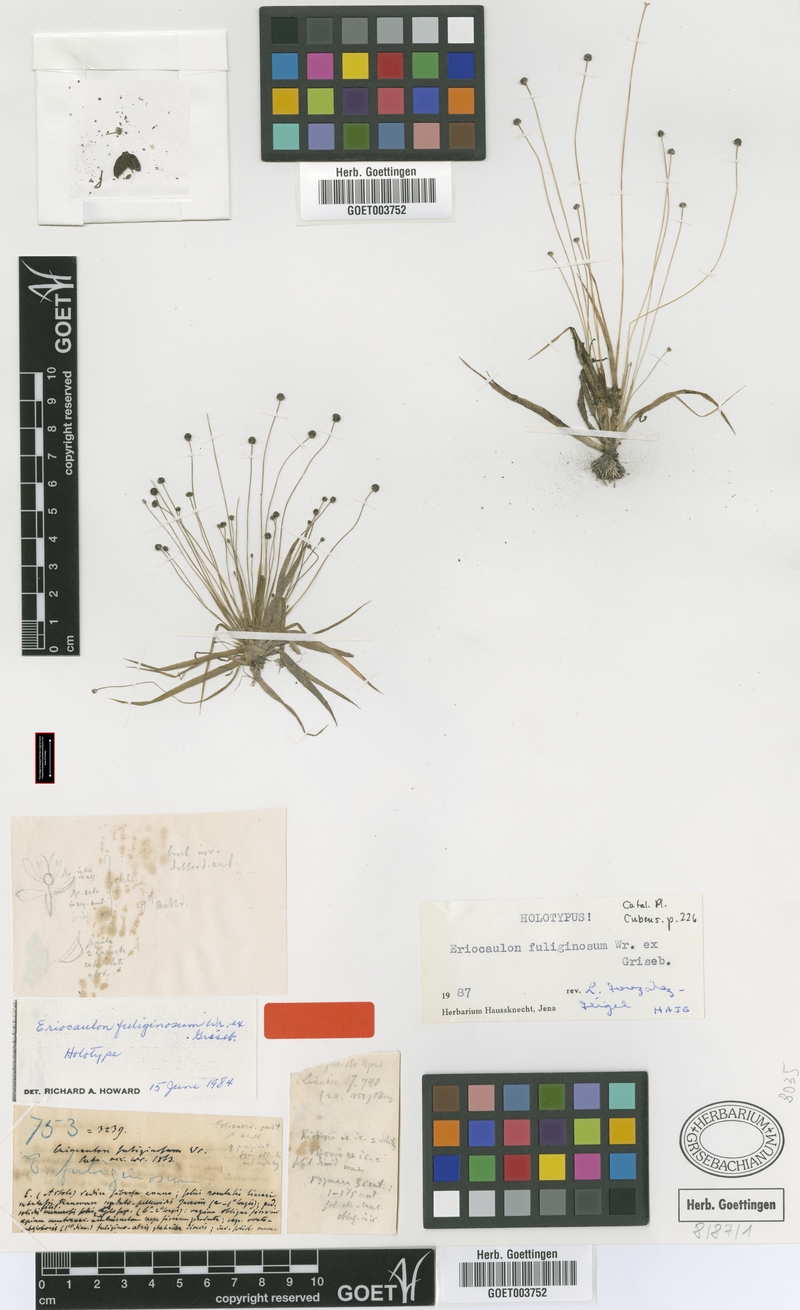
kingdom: Plantae
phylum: Tracheophyta
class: Liliopsida
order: Poales
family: Eriocaulaceae
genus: Eriocaulon
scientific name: Eriocaulon fuliginosum
